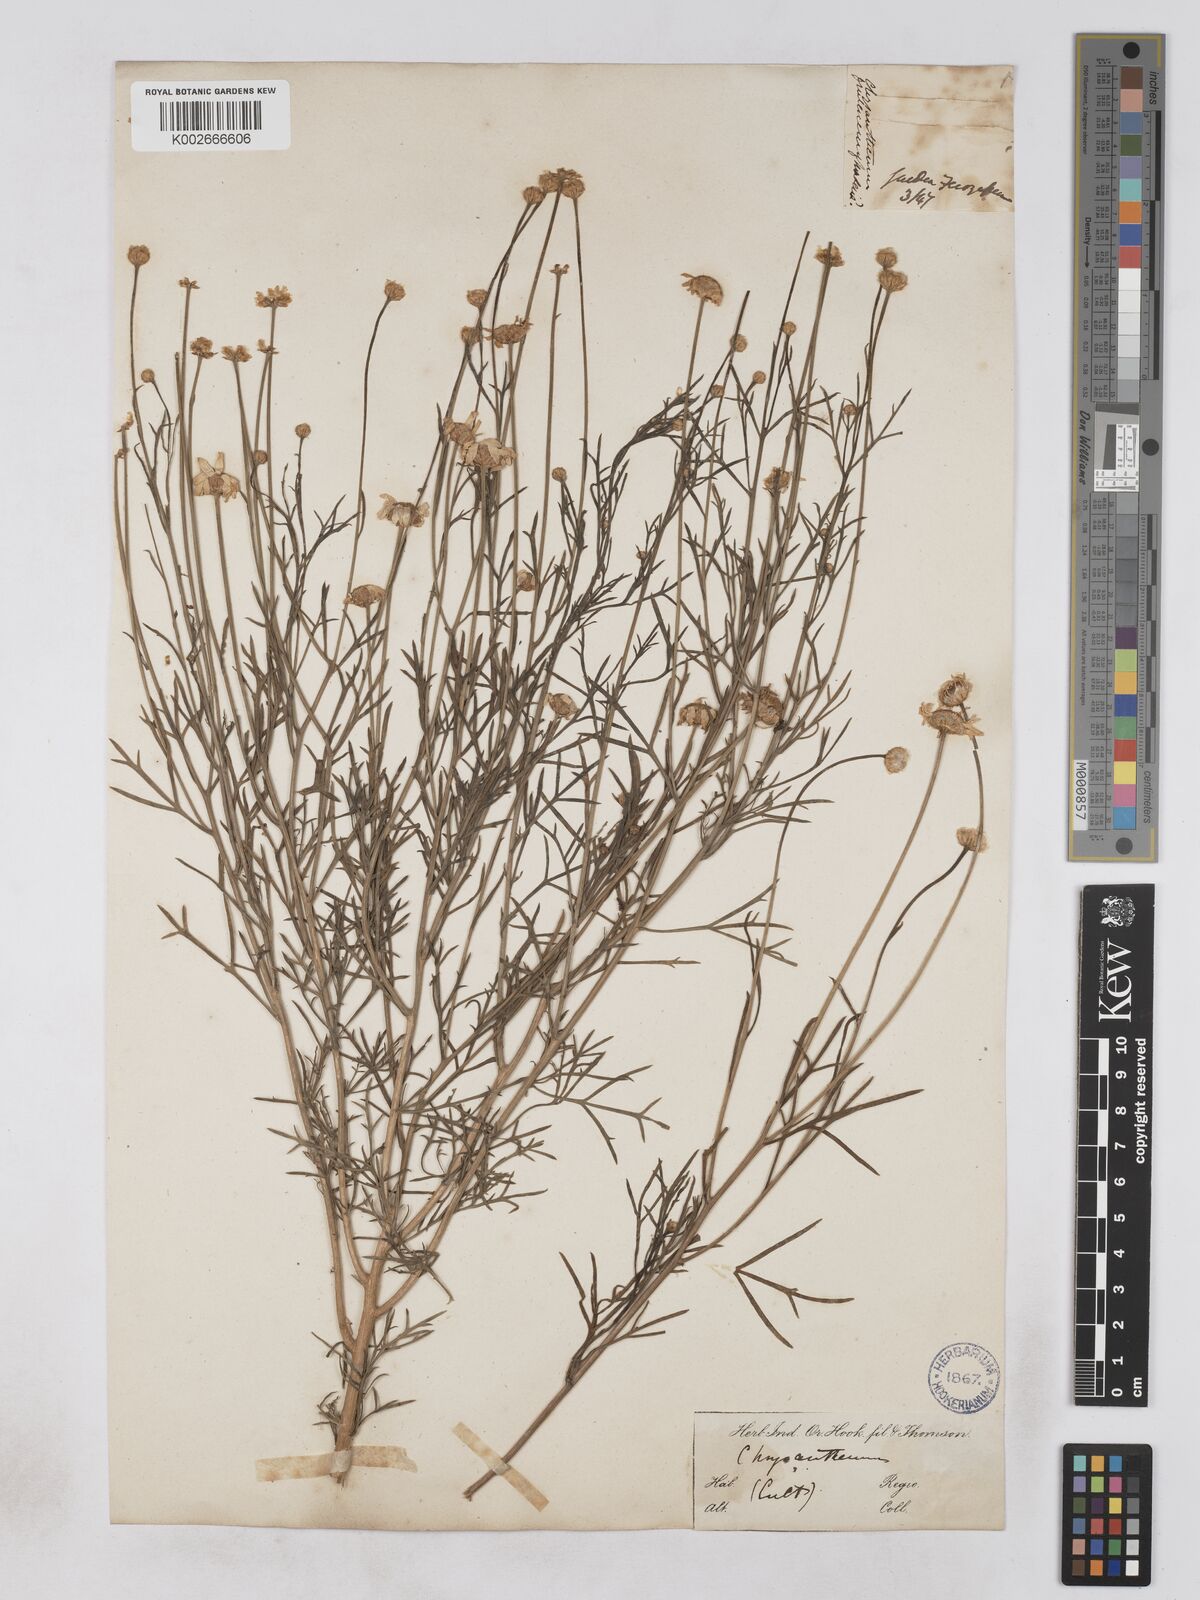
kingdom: Plantae
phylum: Tracheophyta
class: Magnoliopsida
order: Asterales
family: Asteraceae
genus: Argyranthemum
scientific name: Argyranthemum gracile
